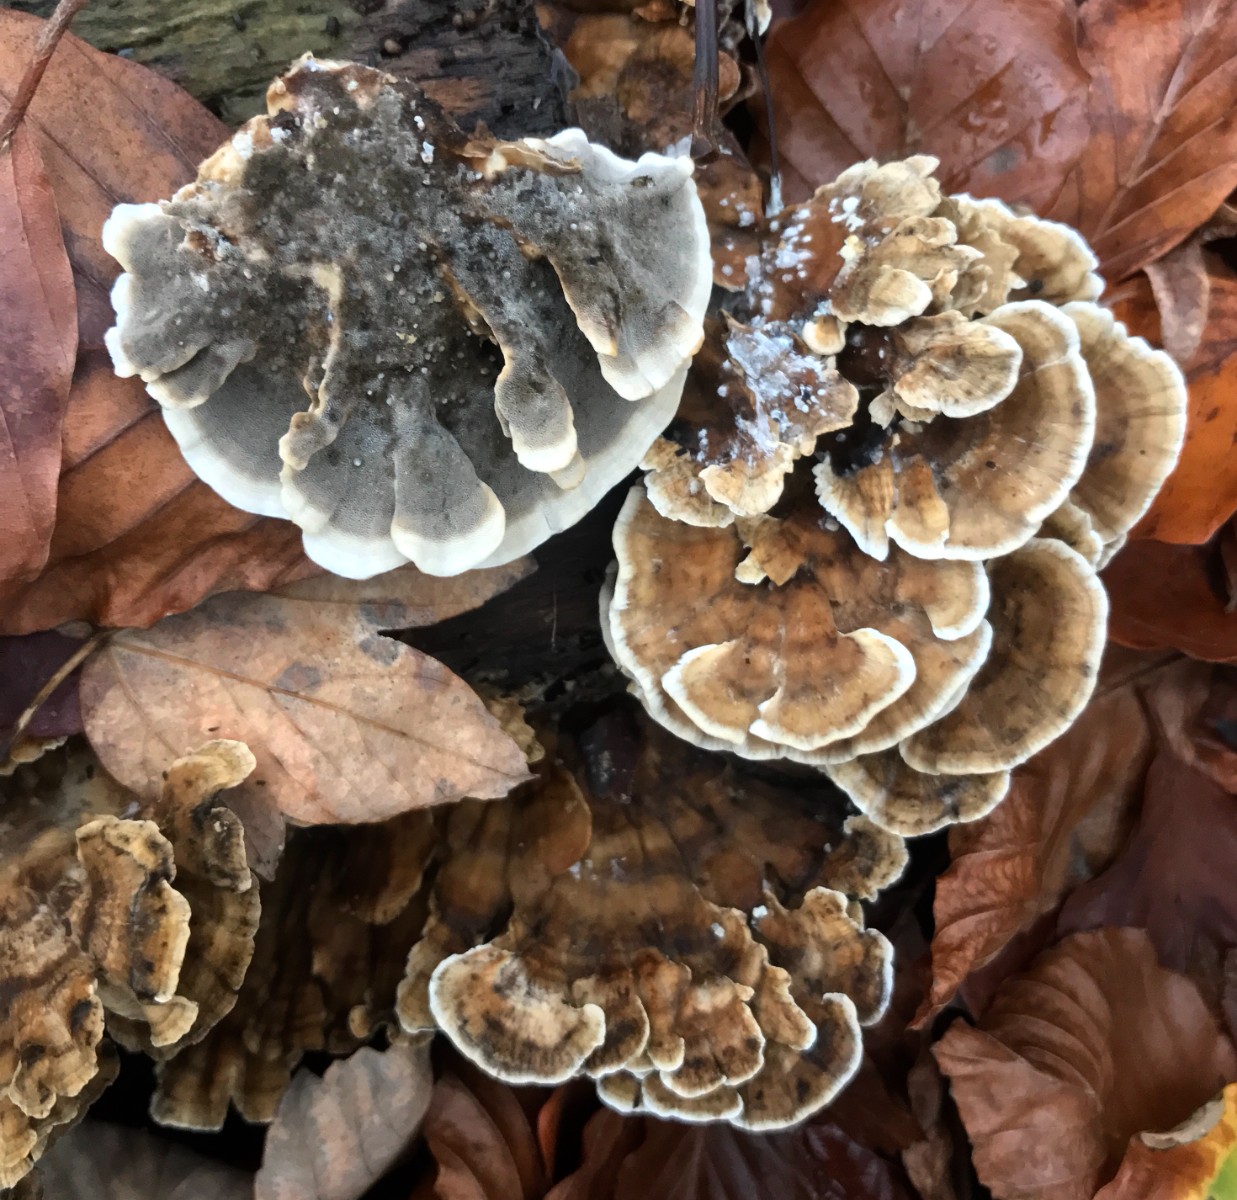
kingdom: Fungi
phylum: Basidiomycota
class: Agaricomycetes
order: Polyporales
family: Phanerochaetaceae
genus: Bjerkandera
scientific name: Bjerkandera adusta
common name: sveden sodporesvamp
